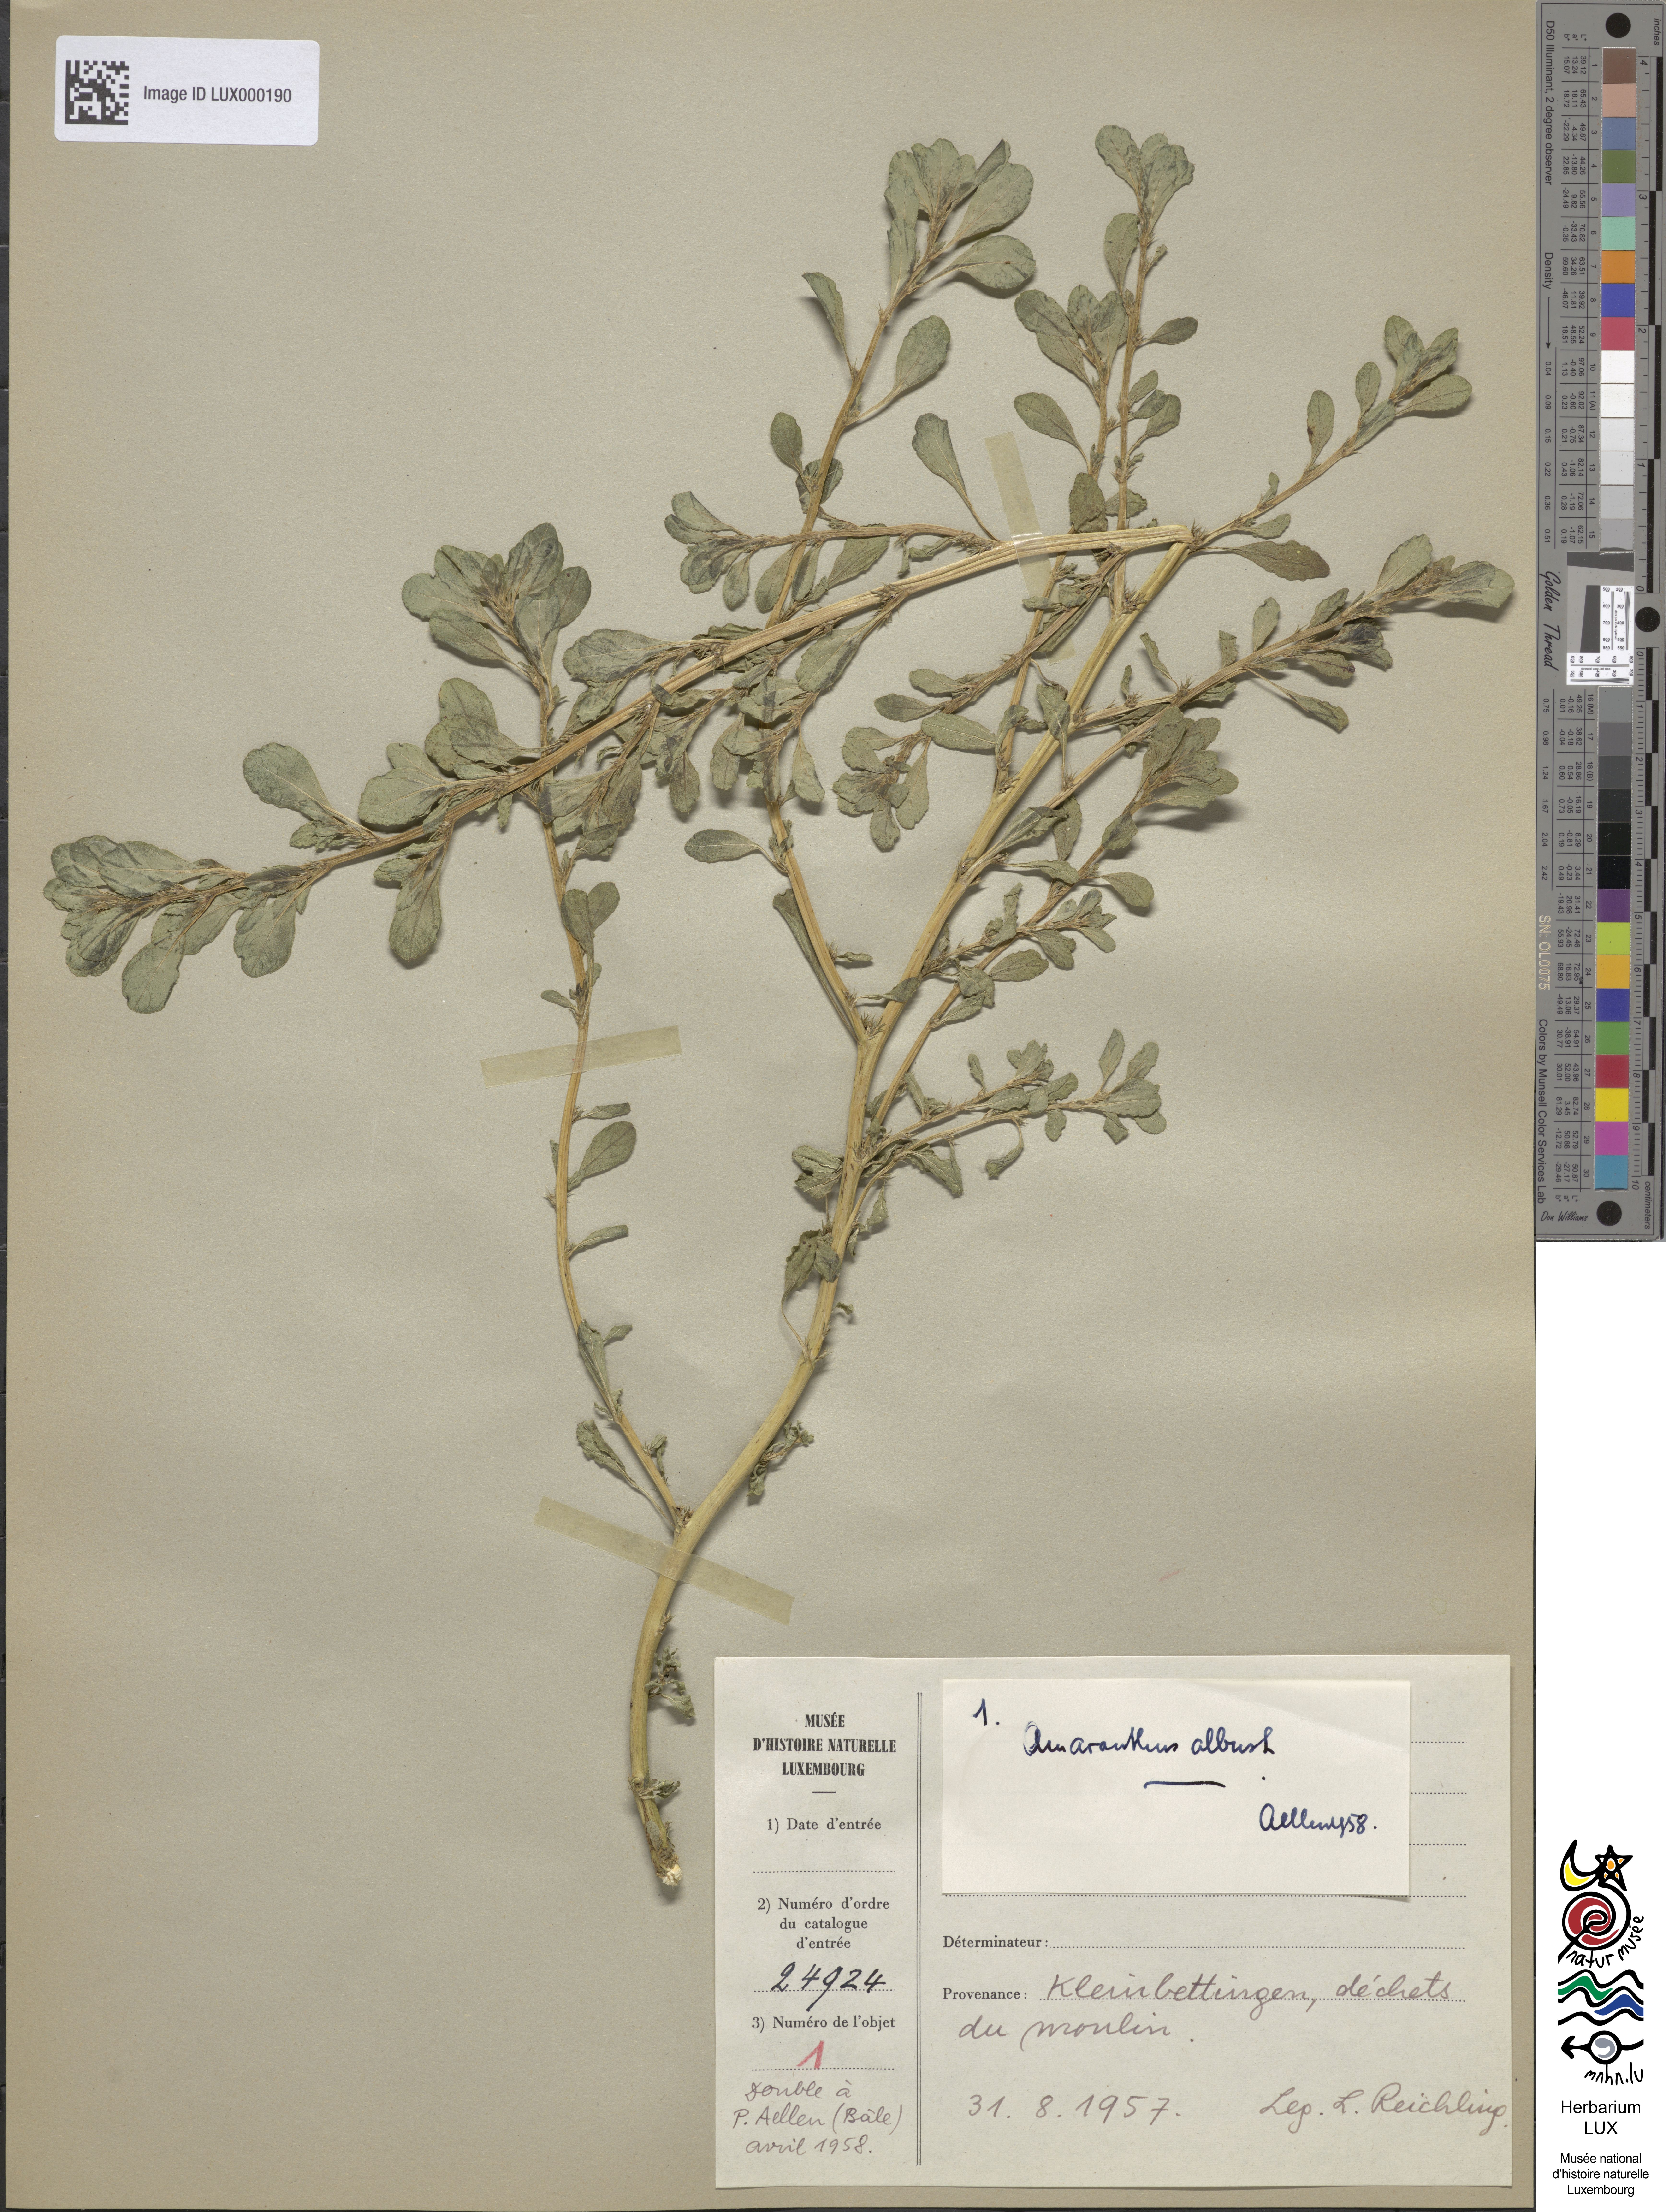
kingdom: Plantae
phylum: Tracheophyta
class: Magnoliopsida
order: Caryophyllales
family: Amaranthaceae
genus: Amaranthus
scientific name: Amaranthus albus
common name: White pigweed
